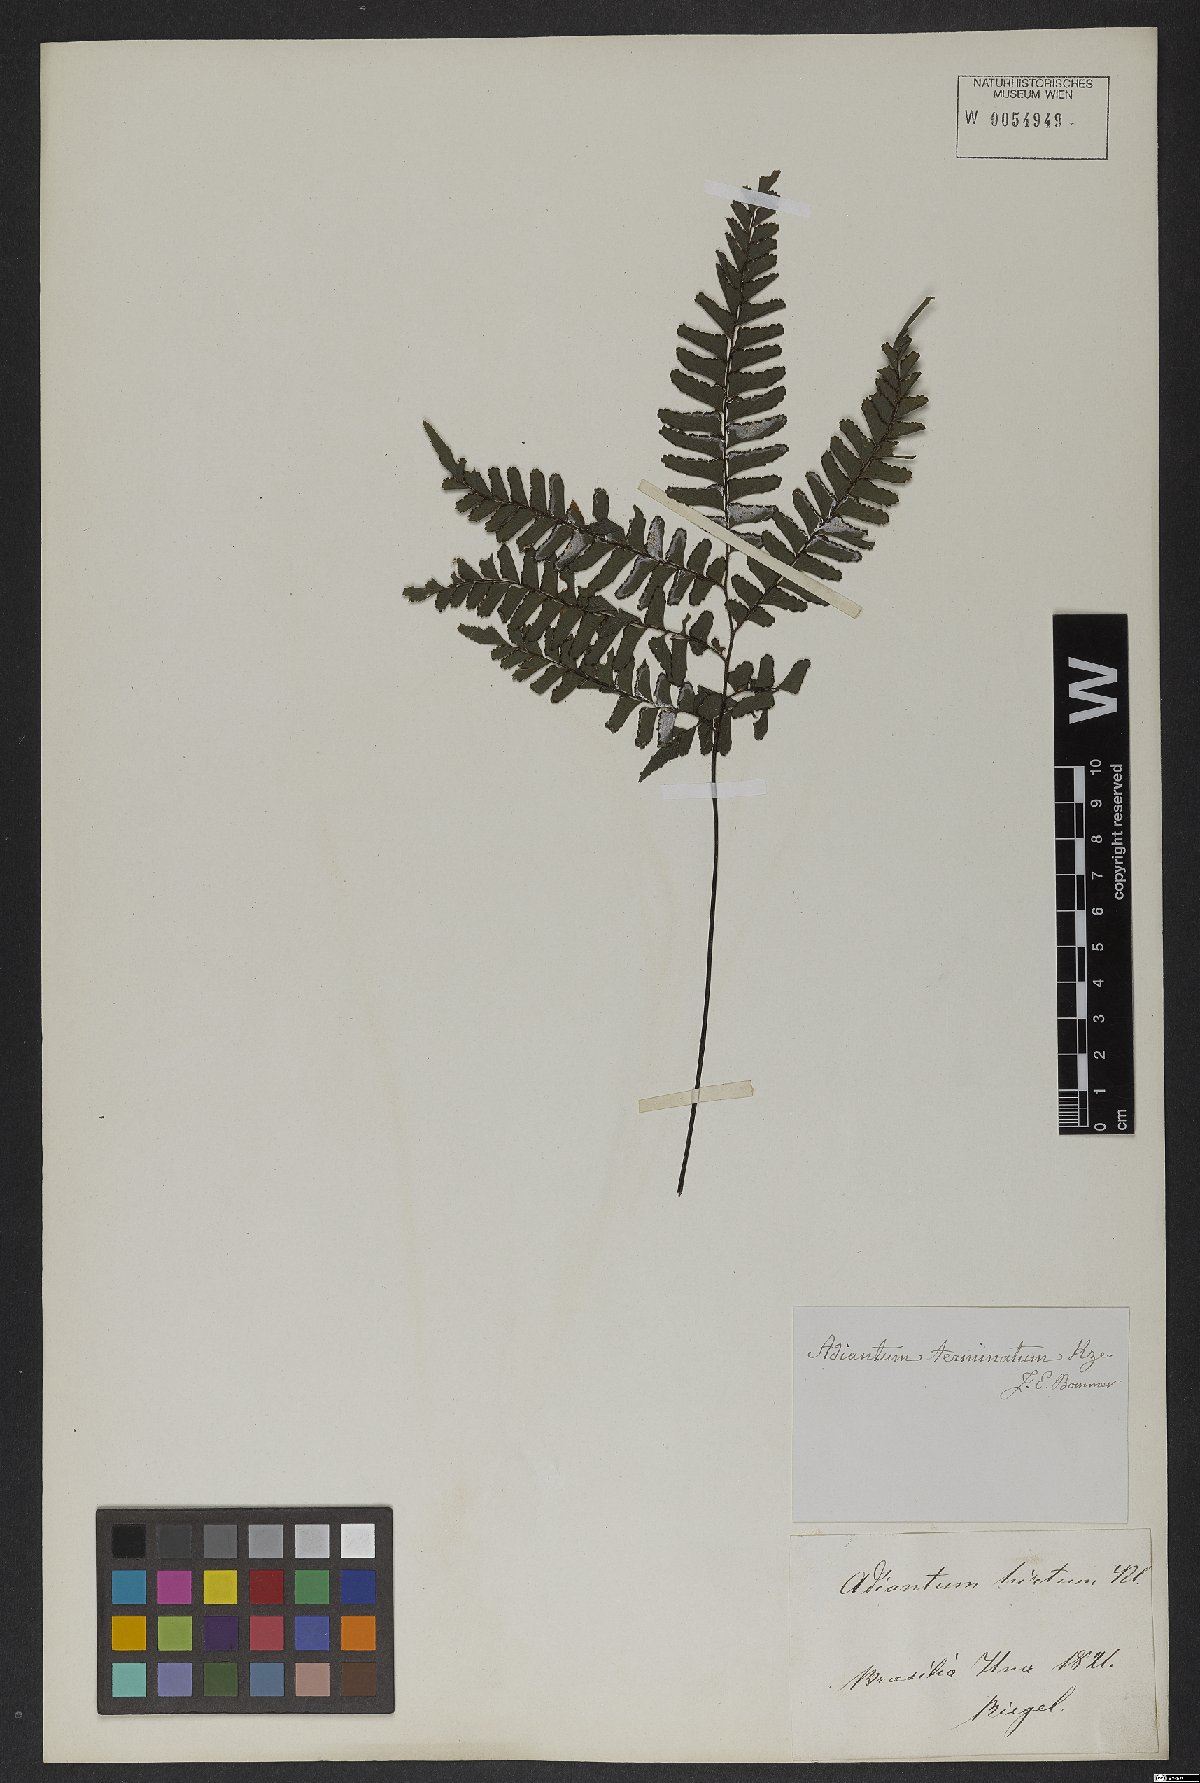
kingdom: Plantae
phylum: Tracheophyta
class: Polypodiopsida
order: Polypodiales
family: Pteridaceae
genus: Adiantum
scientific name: Adiantum terminatum
